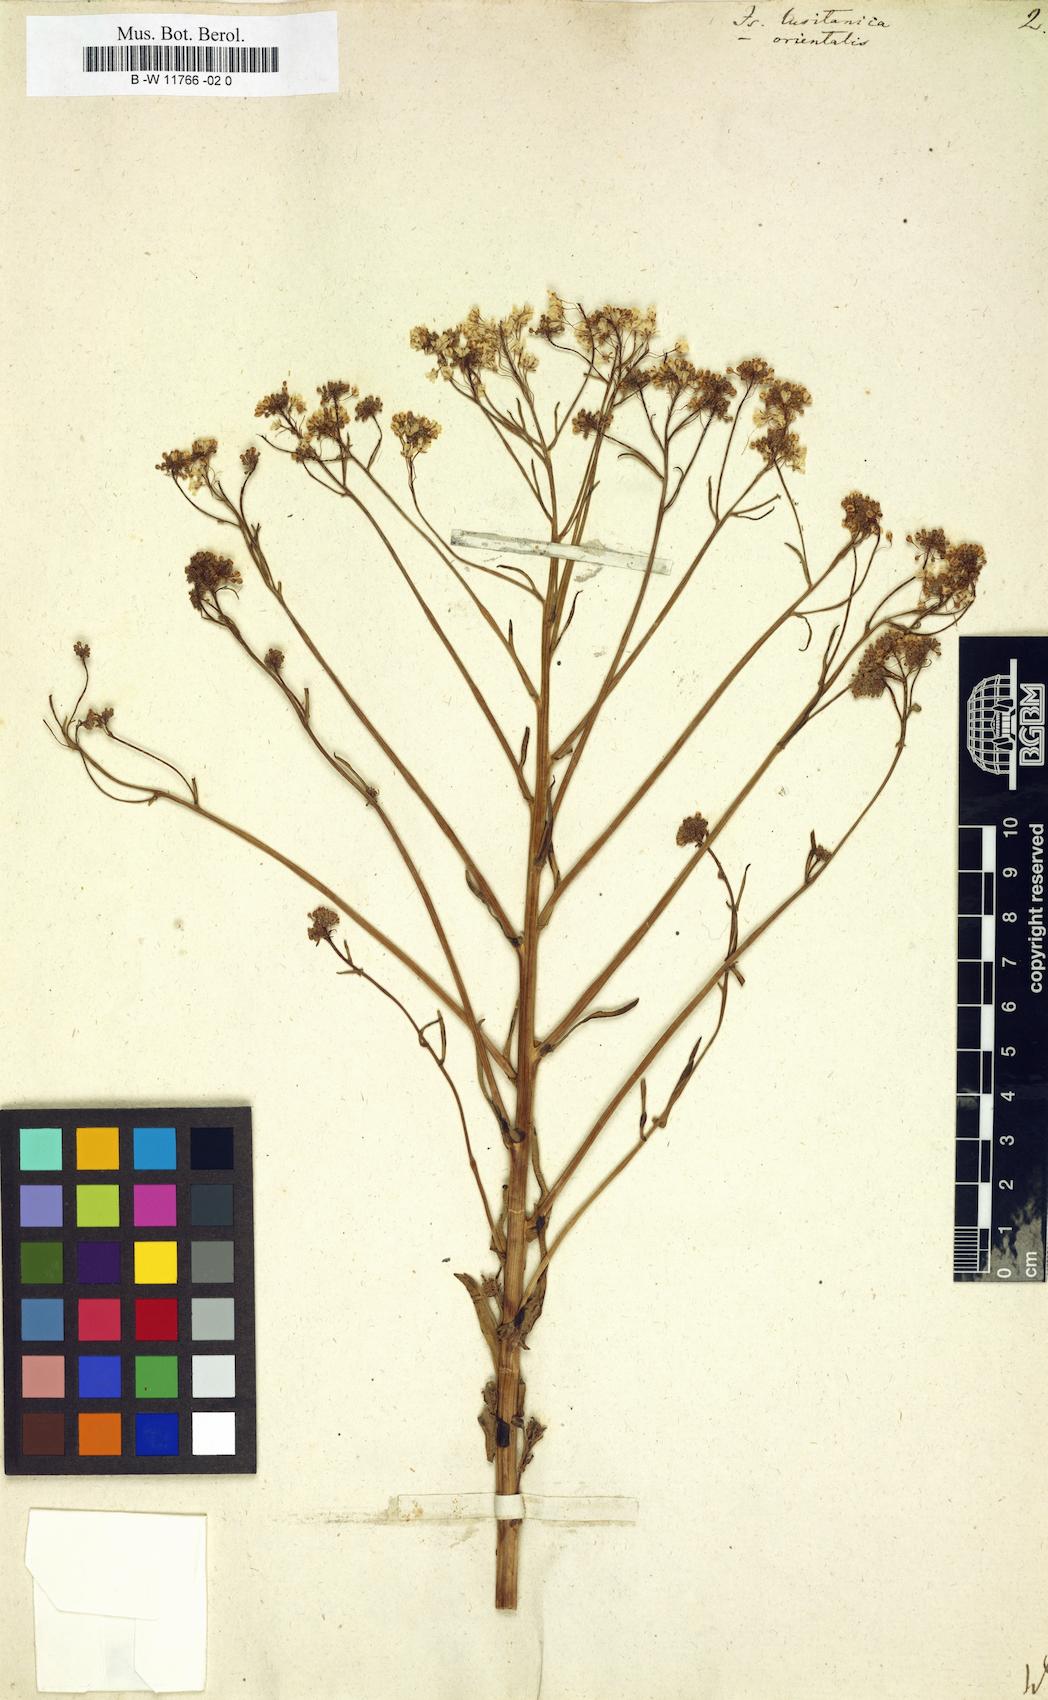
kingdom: Plantae
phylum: Tracheophyta
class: Magnoliopsida
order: Brassicales
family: Brassicaceae
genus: Isatis
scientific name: Isatis lusitanica
